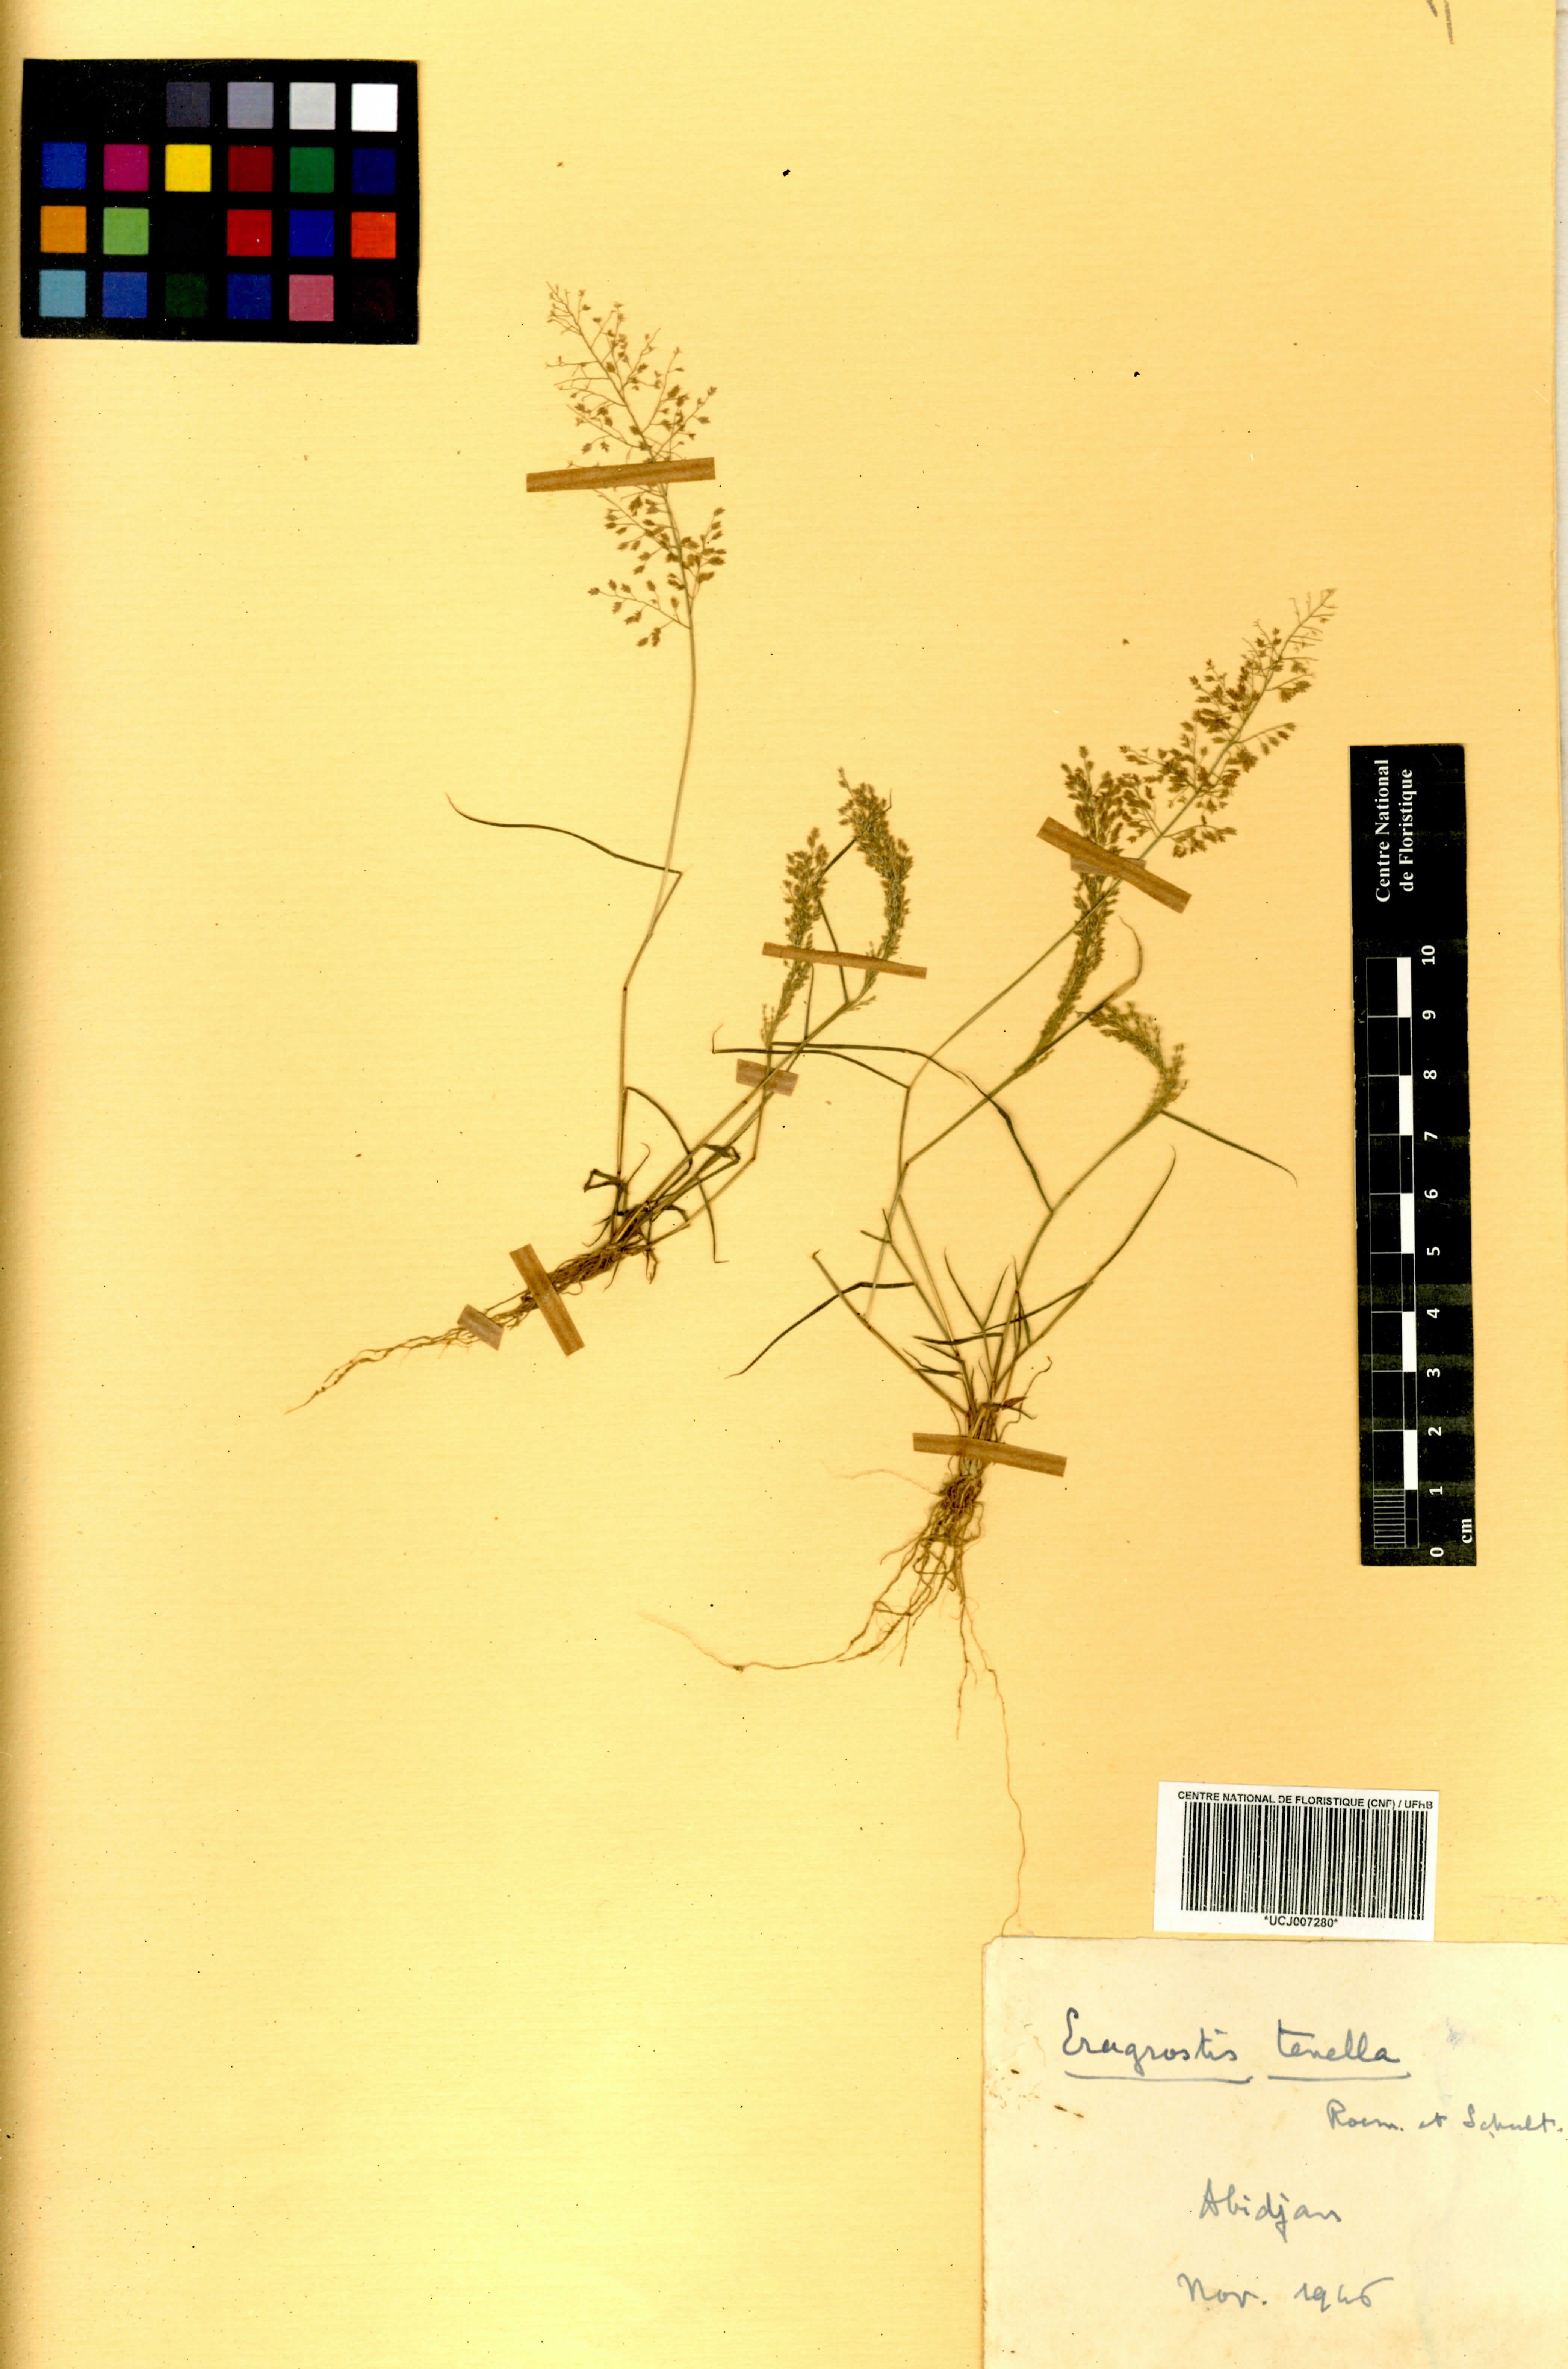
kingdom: Plantae
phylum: Tracheophyta
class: Liliopsida
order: Poales
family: Poaceae
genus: Eragrostis
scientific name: Eragrostis
